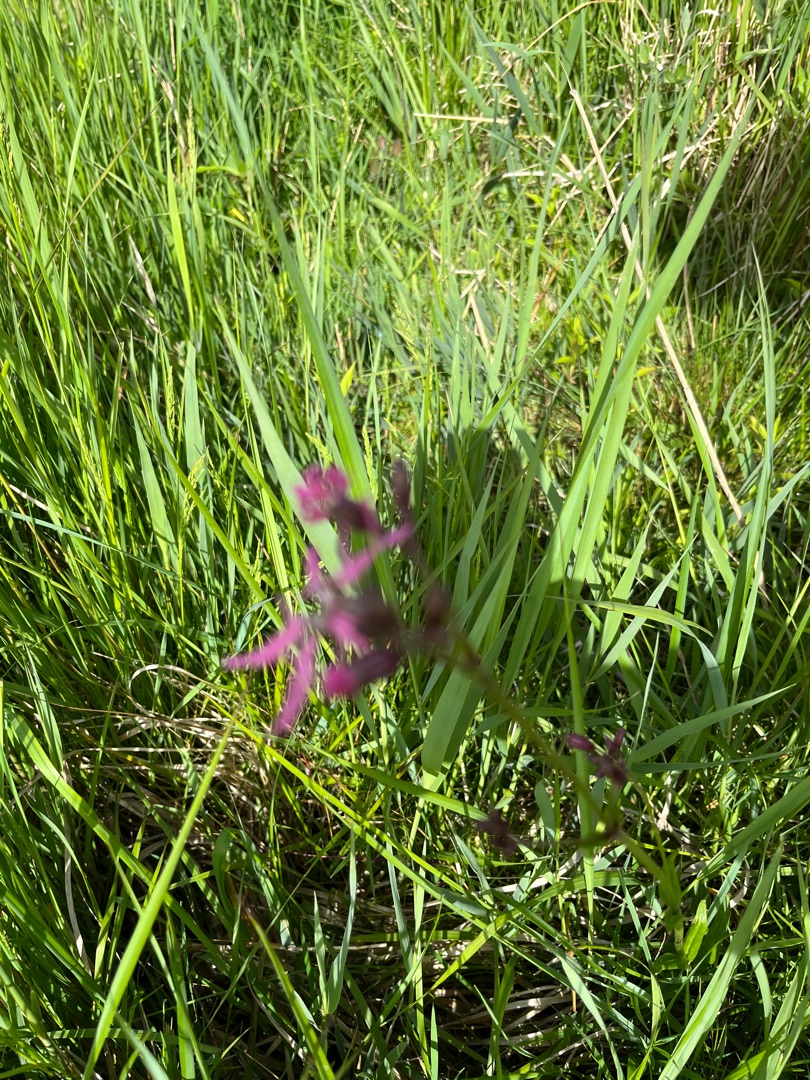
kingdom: Plantae
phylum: Tracheophyta
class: Magnoliopsida
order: Caryophyllales
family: Caryophyllaceae
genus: Silene
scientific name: Silene flos-cuculi
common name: Trævlekrone
